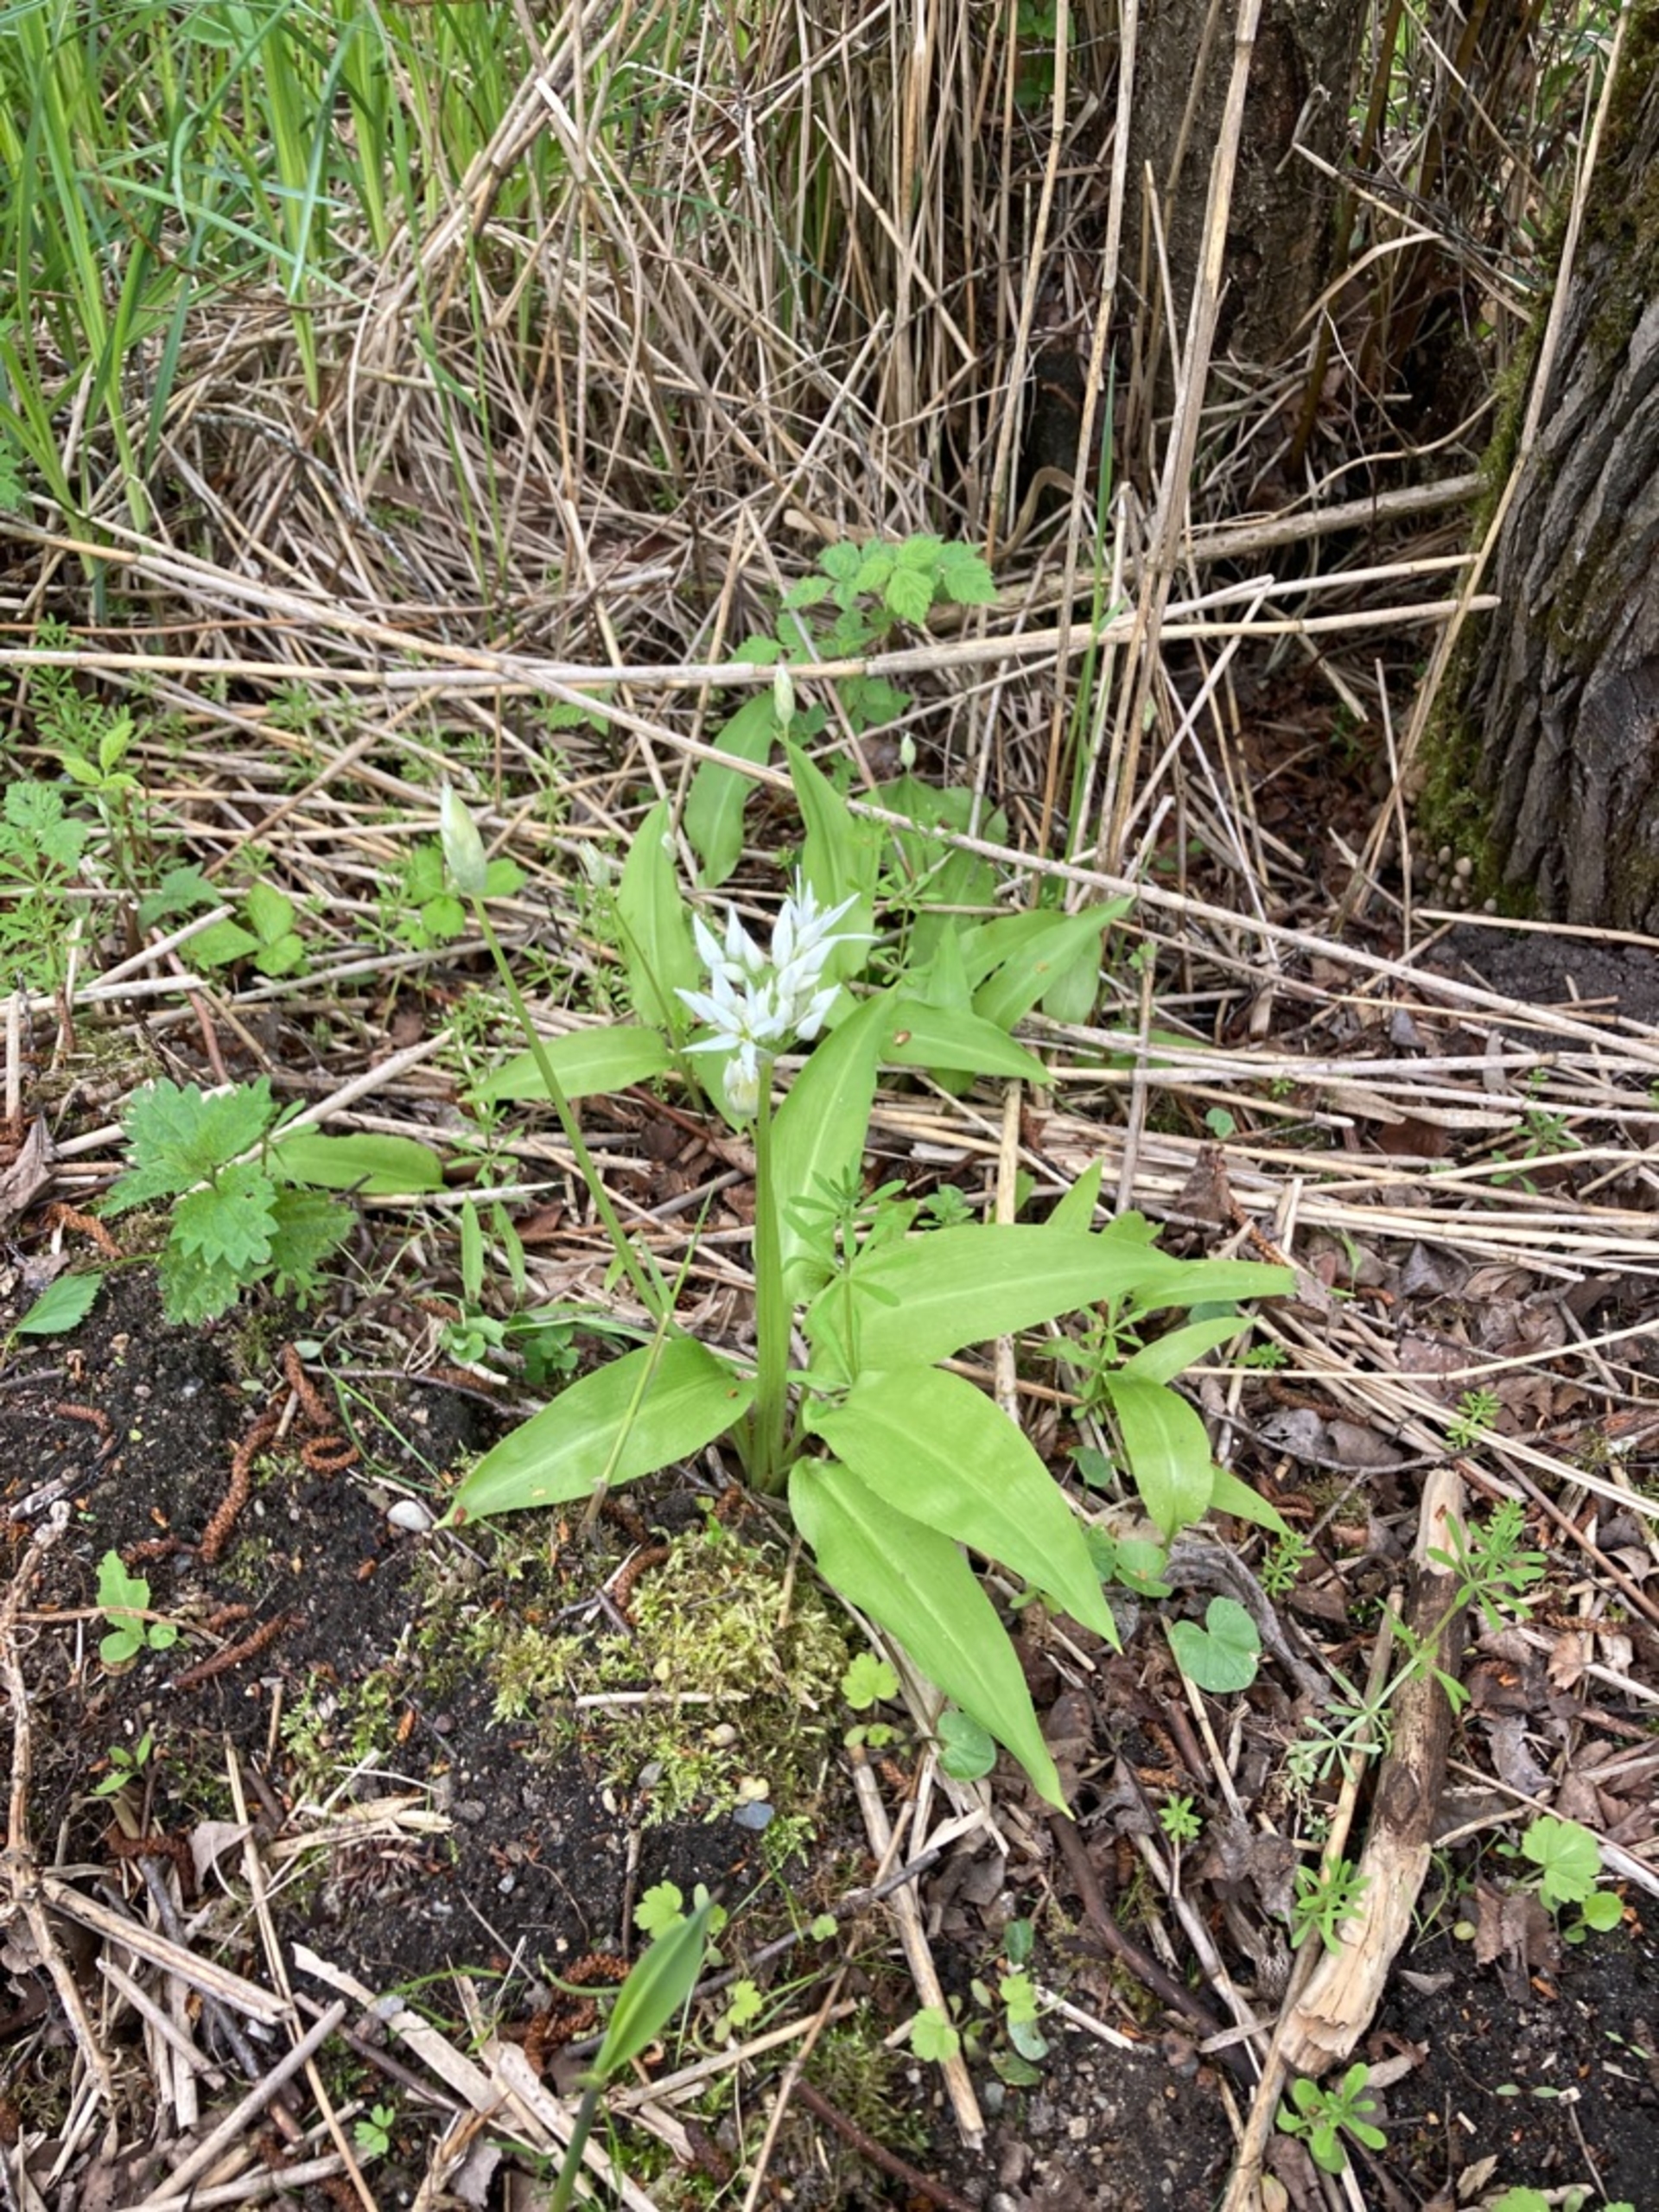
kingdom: Plantae
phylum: Tracheophyta
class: Liliopsida
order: Asparagales
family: Amaryllidaceae
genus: Allium
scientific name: Allium ursinum
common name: Rams-løg
